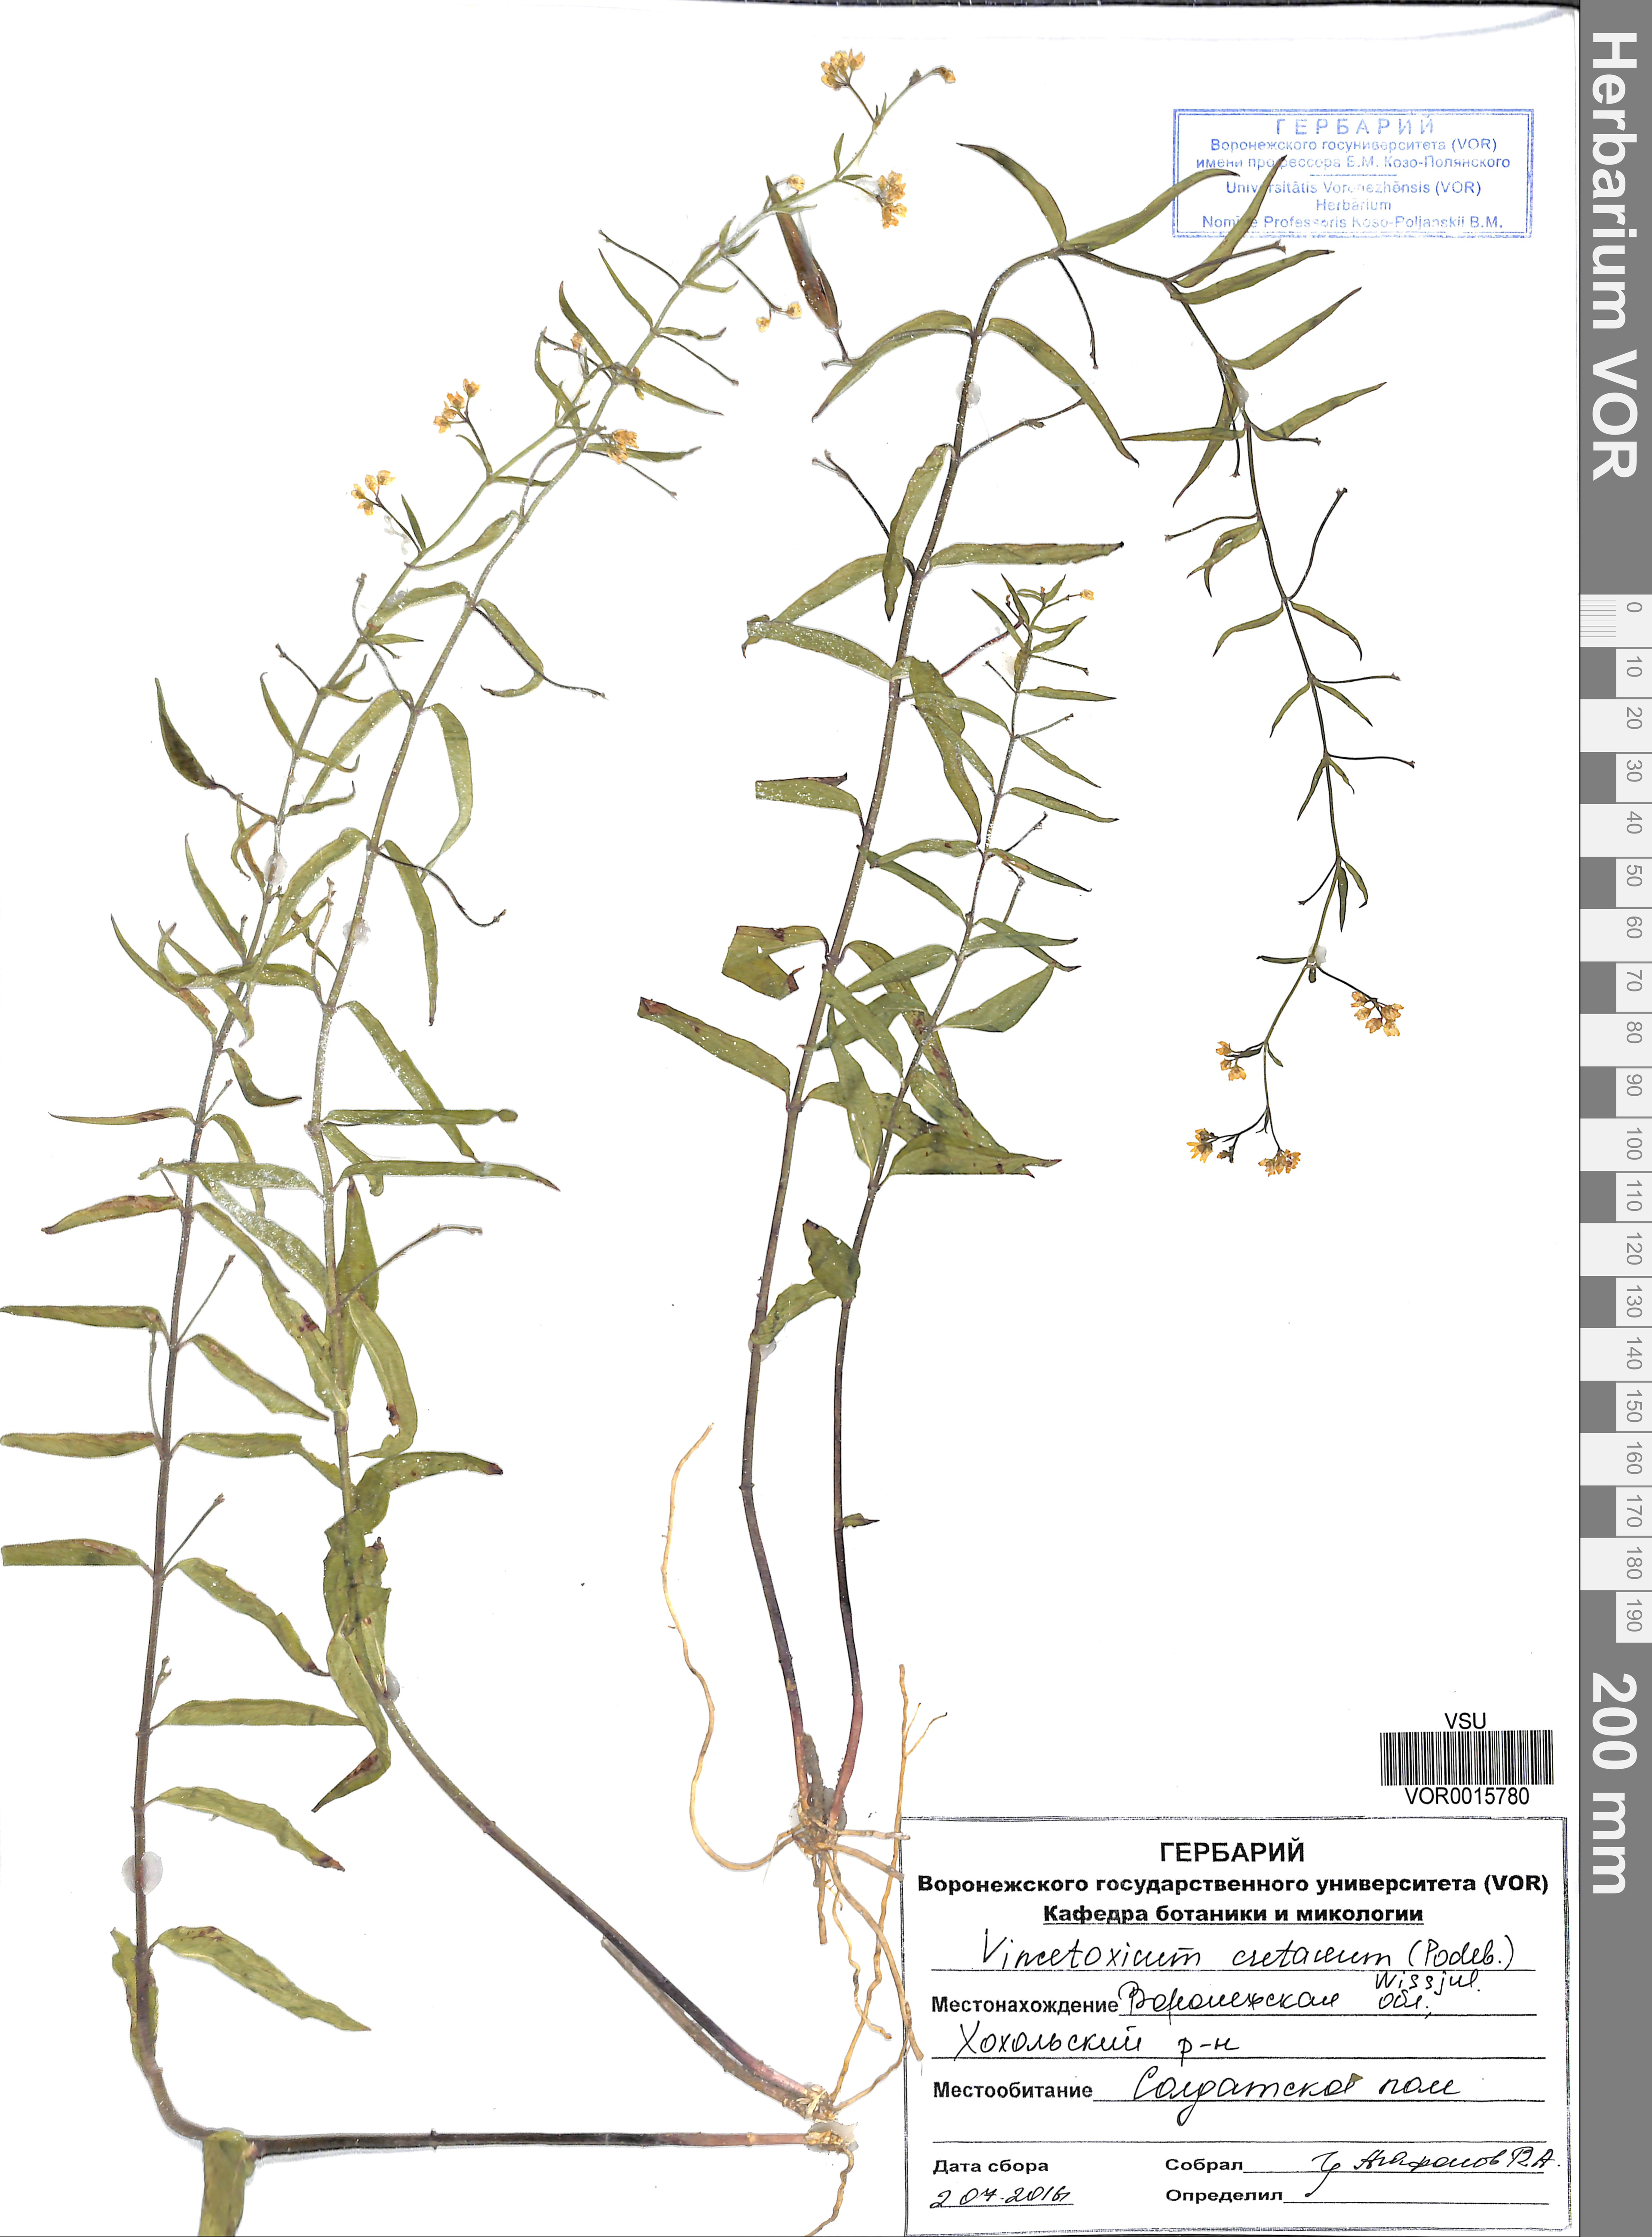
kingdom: Plantae
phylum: Tracheophyta
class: Magnoliopsida
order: Gentianales
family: Apocynaceae
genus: Vincetoxicum
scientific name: Vincetoxicum hirundinaria
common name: White swallowwort
